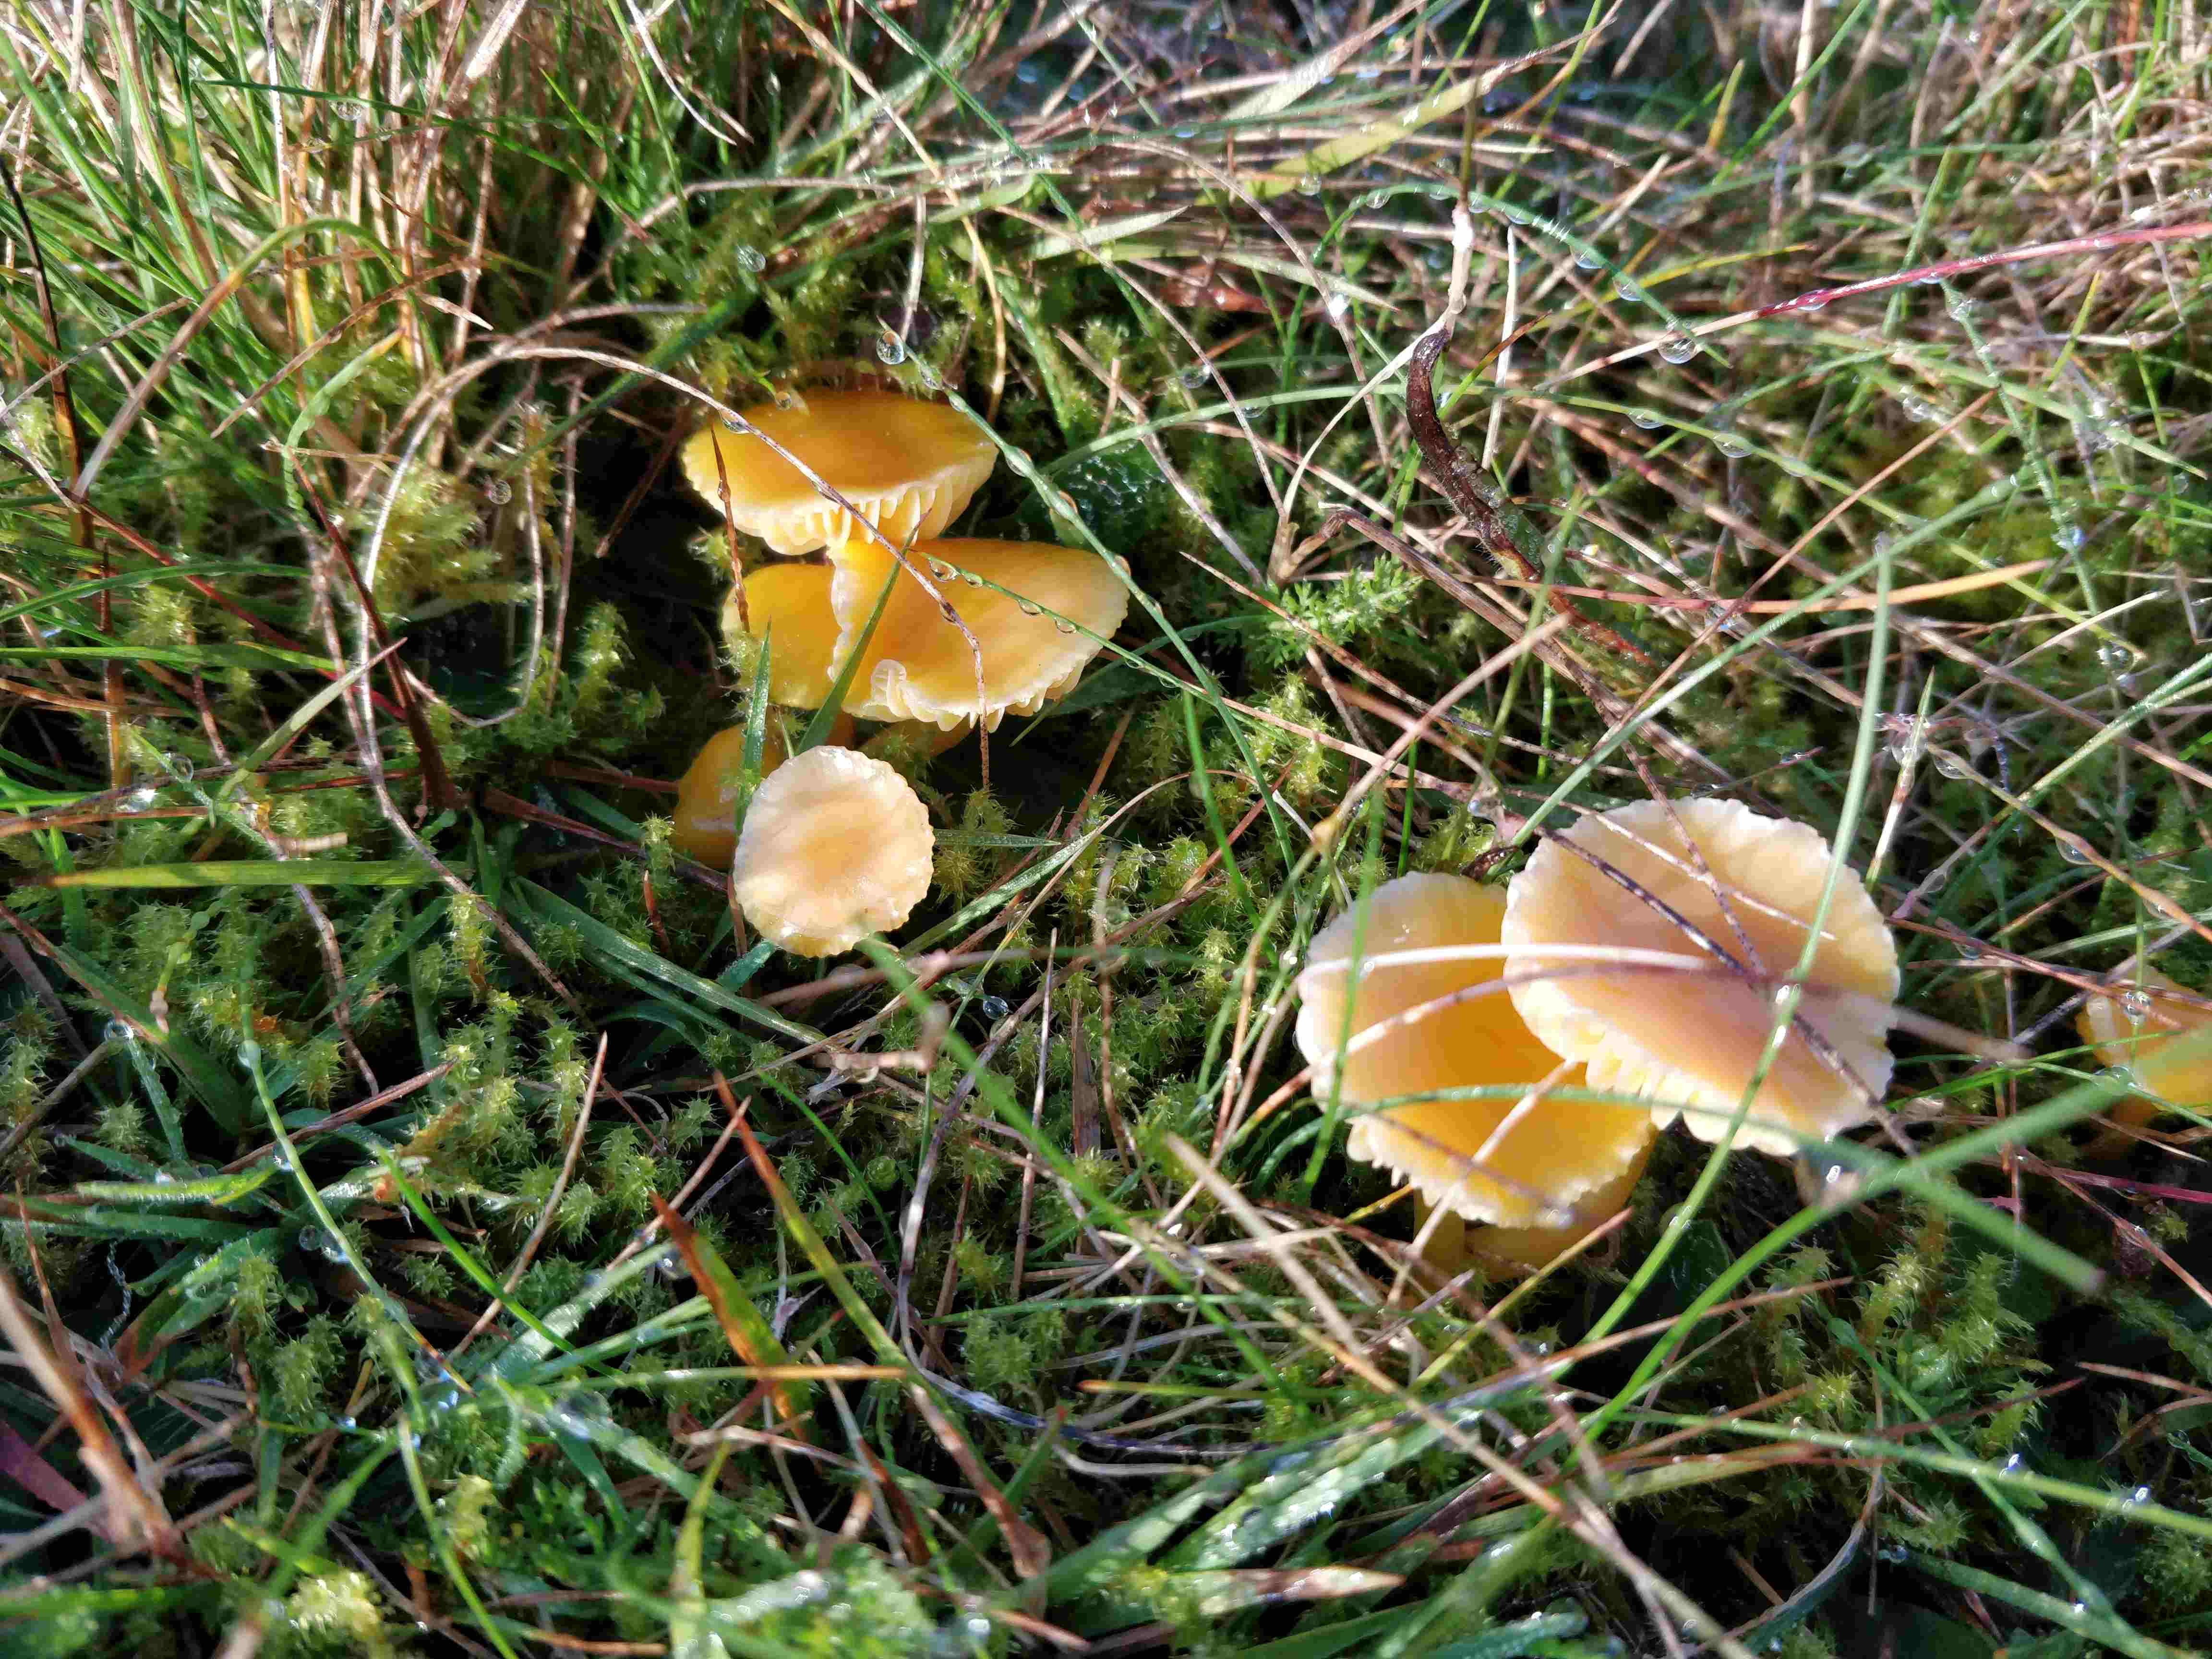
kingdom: Fungi
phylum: Basidiomycota
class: Agaricomycetes
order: Agaricales
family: Hygrophoraceae
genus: Hygrocybe
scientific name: Hygrocybe ceracea
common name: voksgul vokshat
